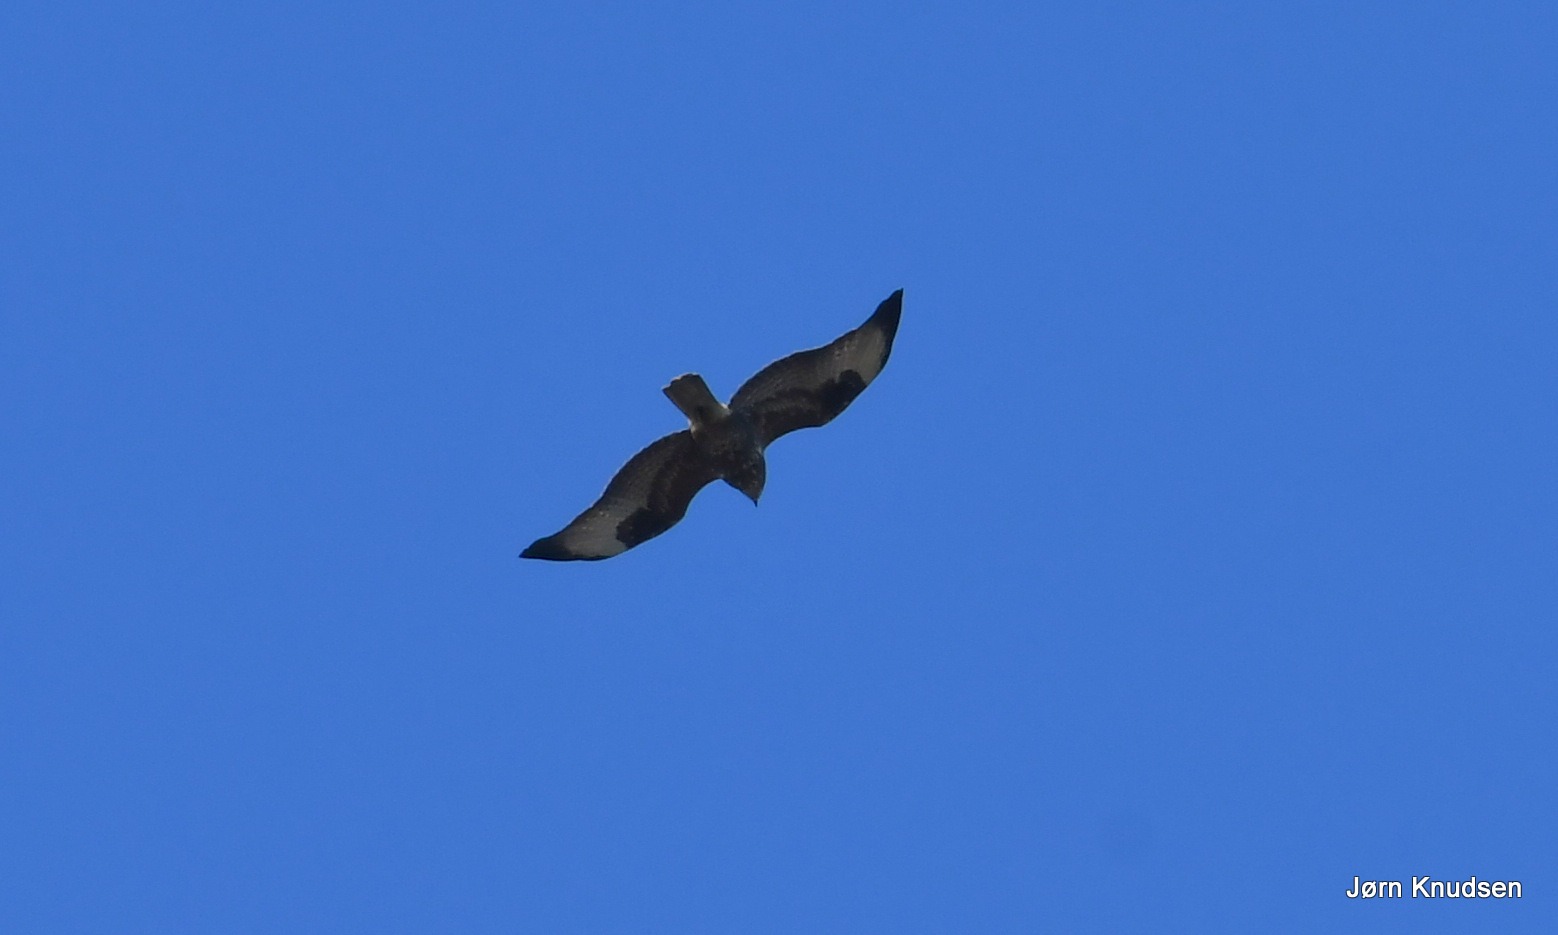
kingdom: Animalia
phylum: Chordata
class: Aves
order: Accipitriformes
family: Accipitridae
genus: Buteo
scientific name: Buteo buteo
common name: Musvåge
